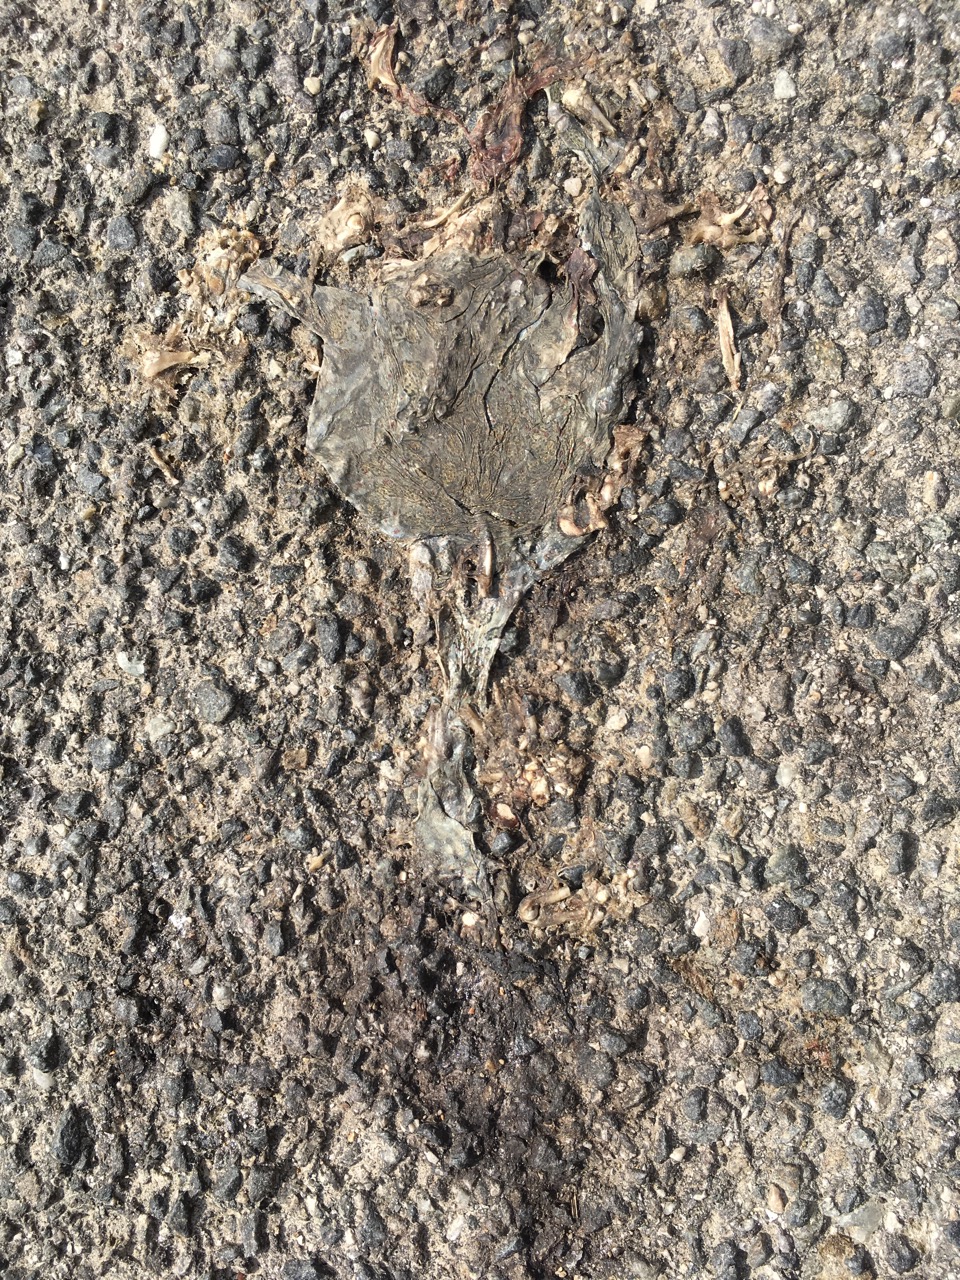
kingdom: Animalia
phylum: Chordata
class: Amphibia
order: Anura
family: Bufonidae
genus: Bufotes
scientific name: Bufotes viridis
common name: European green toad
